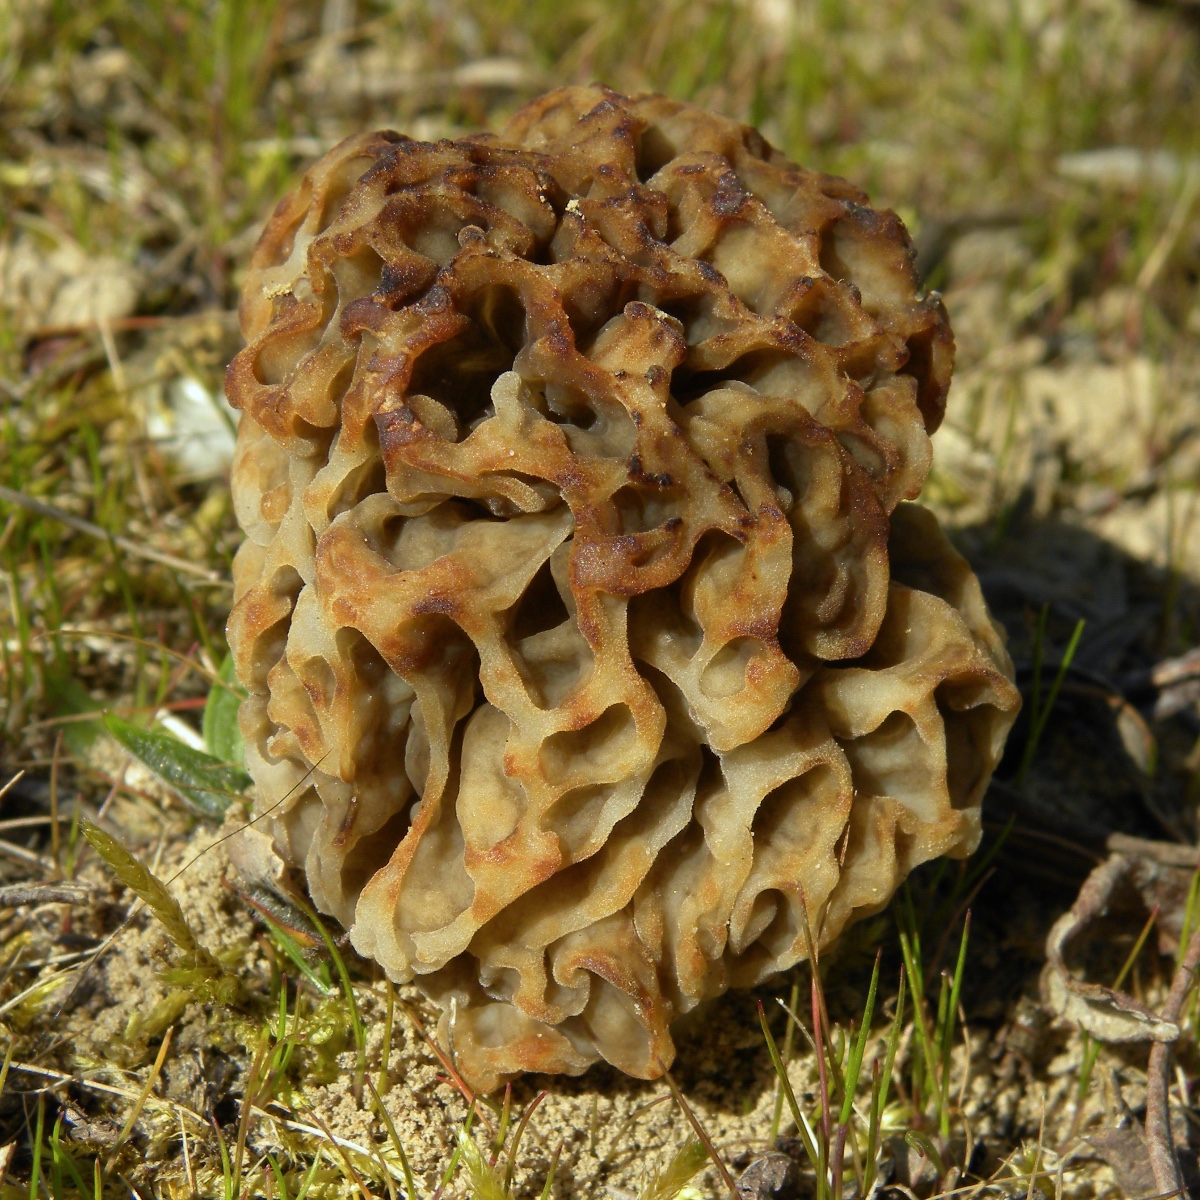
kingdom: Fungi
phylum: Ascomycota
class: Pezizomycetes
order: Pezizales
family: Morchellaceae
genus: Morchella
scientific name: Morchella esculenta
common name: almindelig morkel
